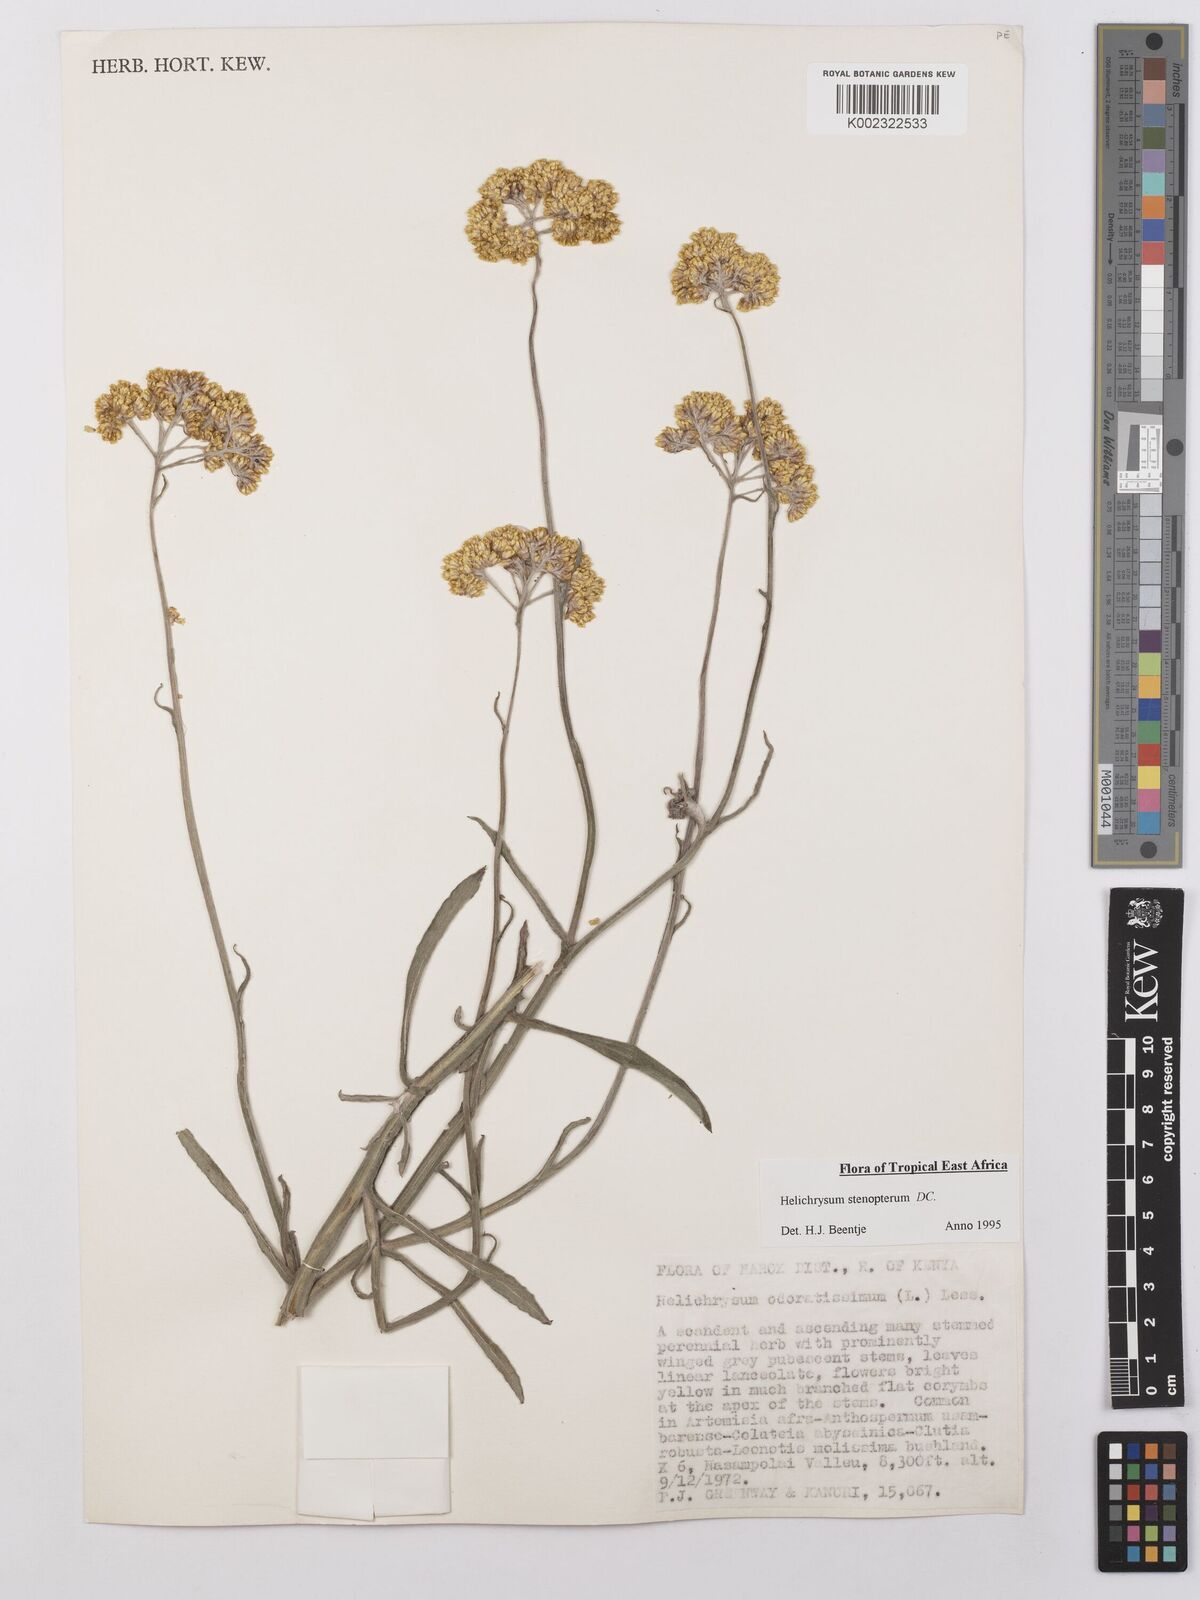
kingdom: Plantae
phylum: Tracheophyta
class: Magnoliopsida
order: Asterales
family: Asteraceae
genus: Helichrysum
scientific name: Helichrysum stenopterum
